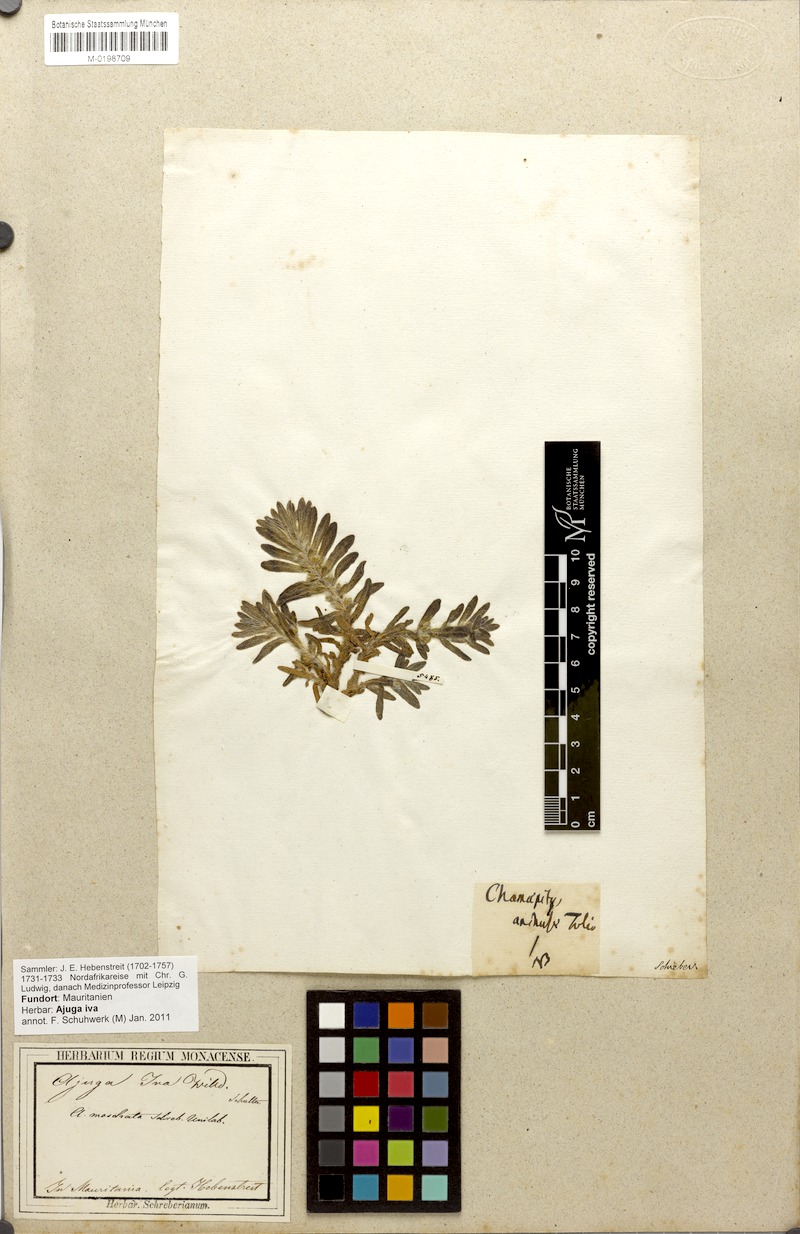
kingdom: Plantae
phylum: Tracheophyta
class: Magnoliopsida
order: Lamiales
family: Lamiaceae
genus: Ajuga
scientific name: Ajuga iva
